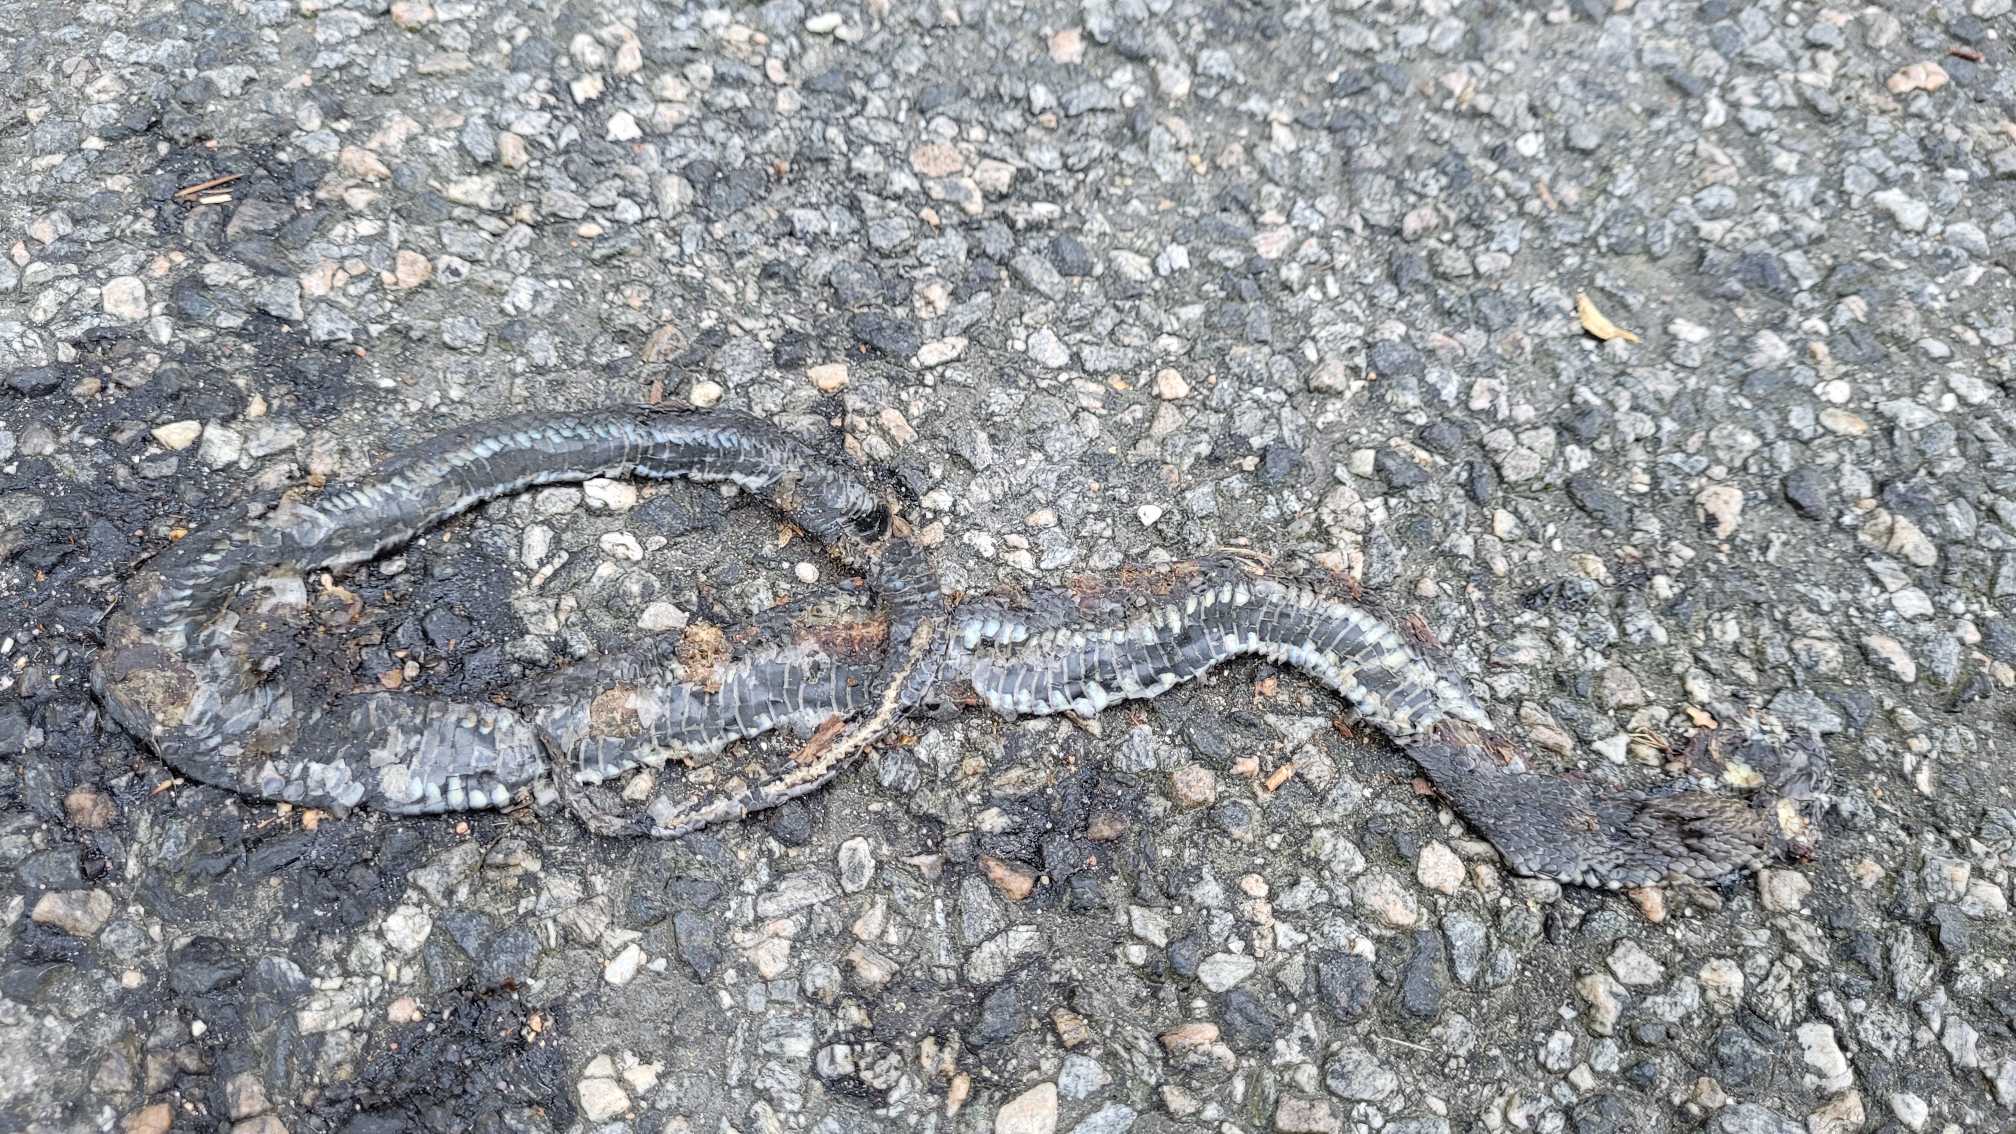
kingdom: Animalia
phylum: Chordata
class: Squamata
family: Colubridae
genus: Natrix
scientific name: Natrix natrix
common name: Snog
